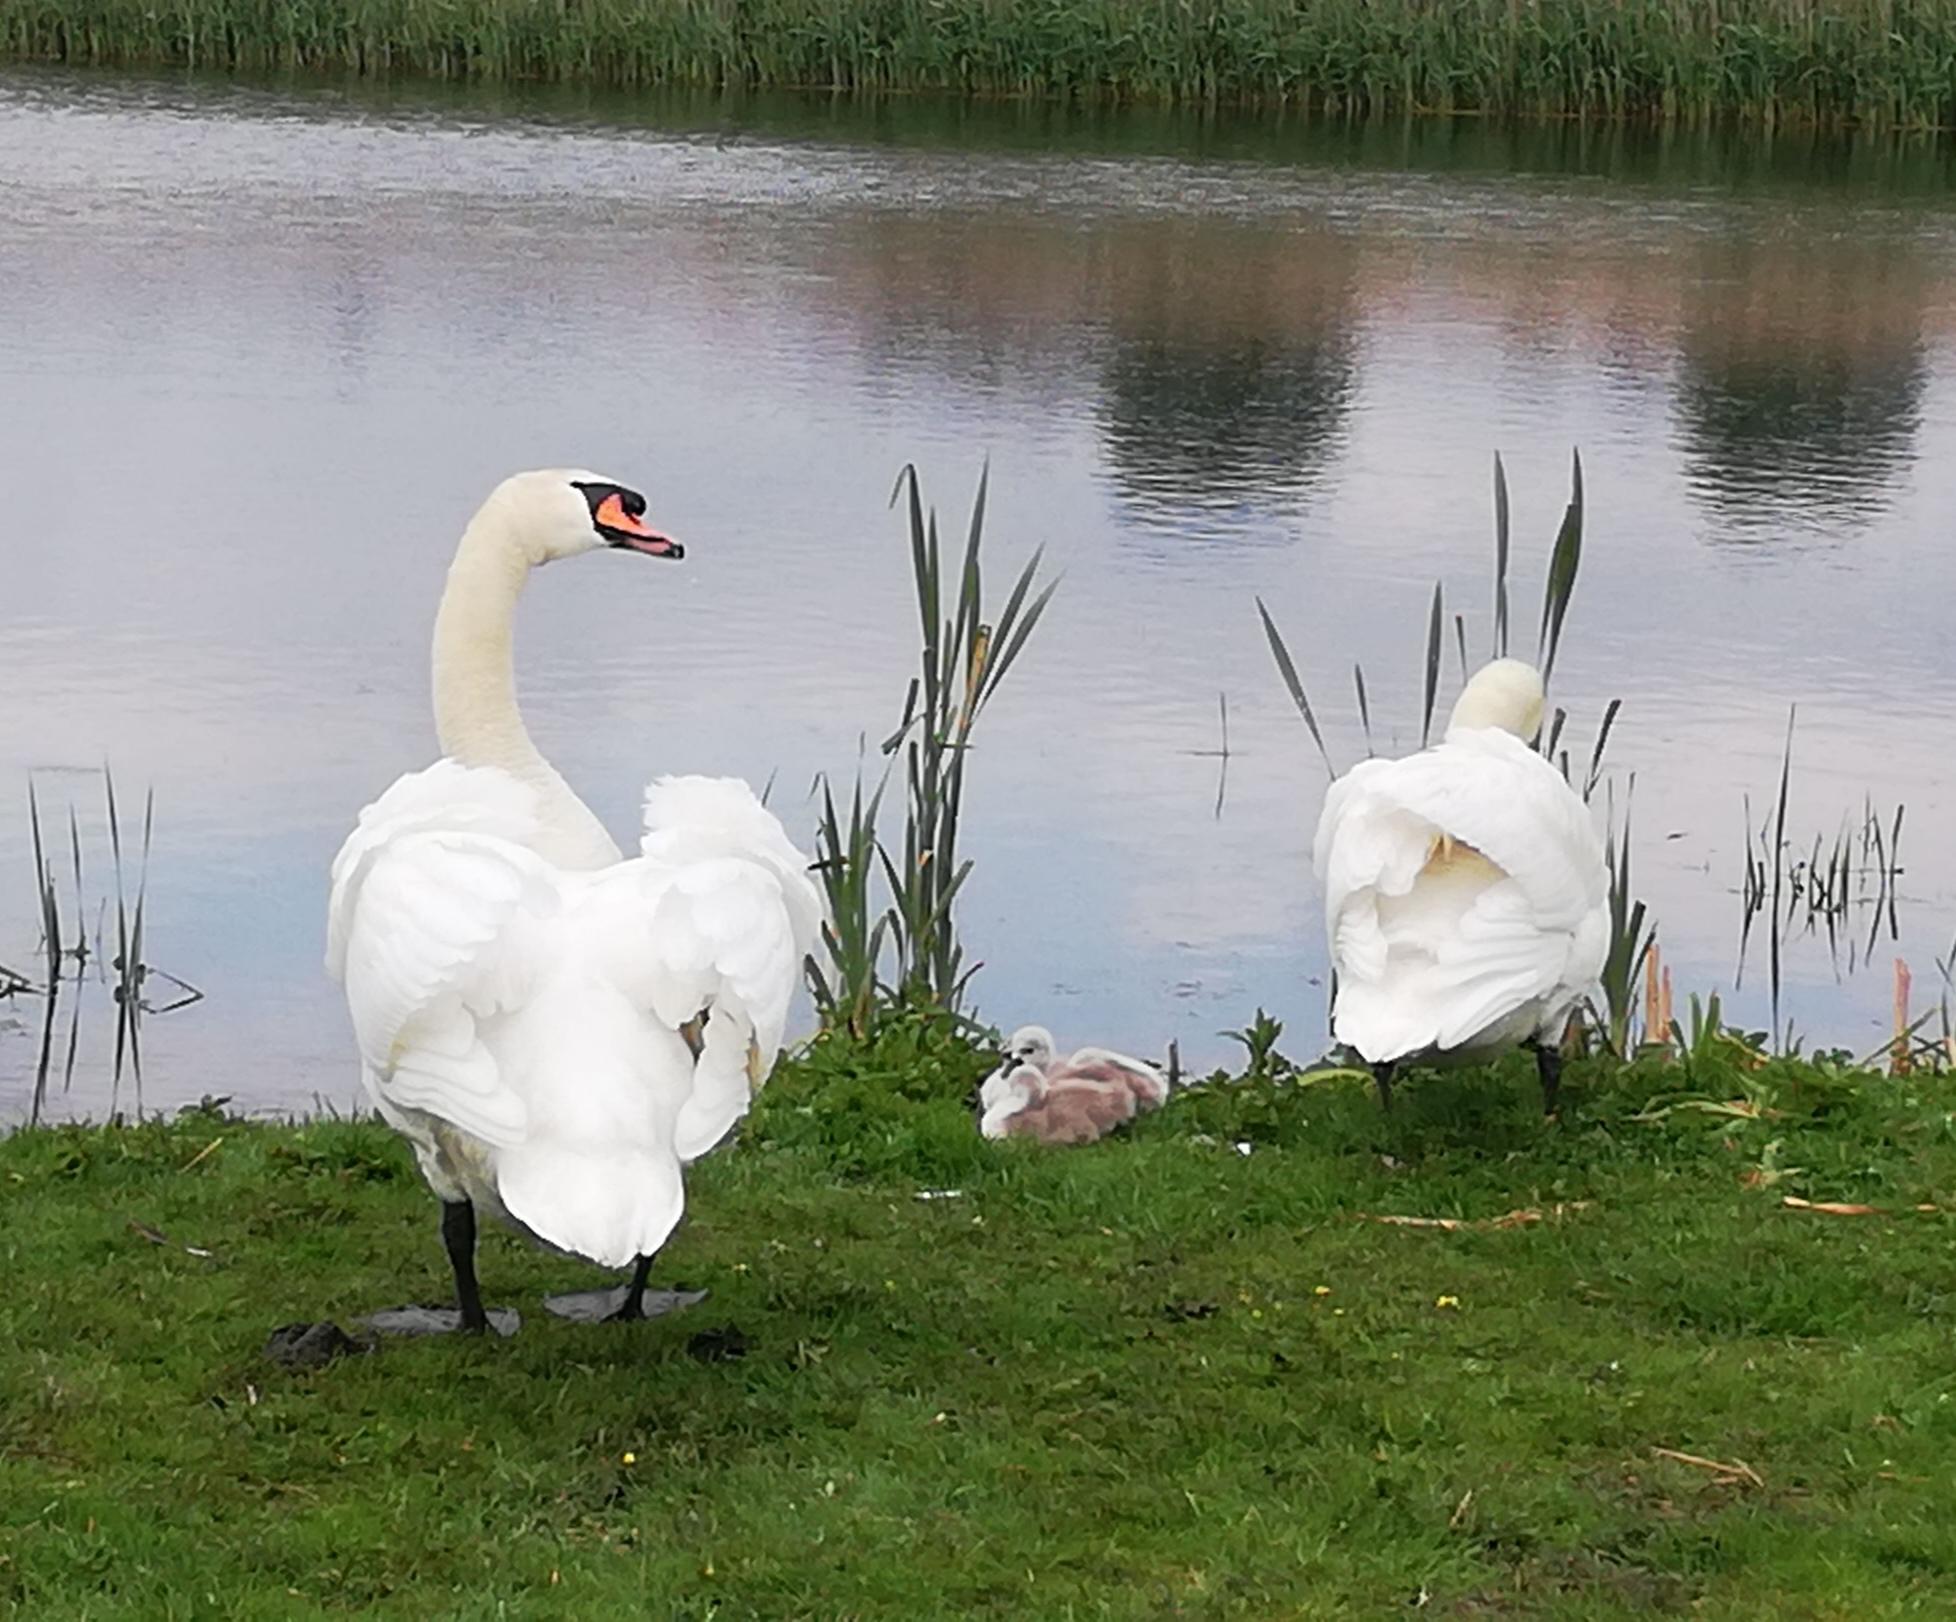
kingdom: Animalia
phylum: Chordata
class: Aves
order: Anseriformes
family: Anatidae
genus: Cygnus
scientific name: Cygnus olor
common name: Knopsvane
